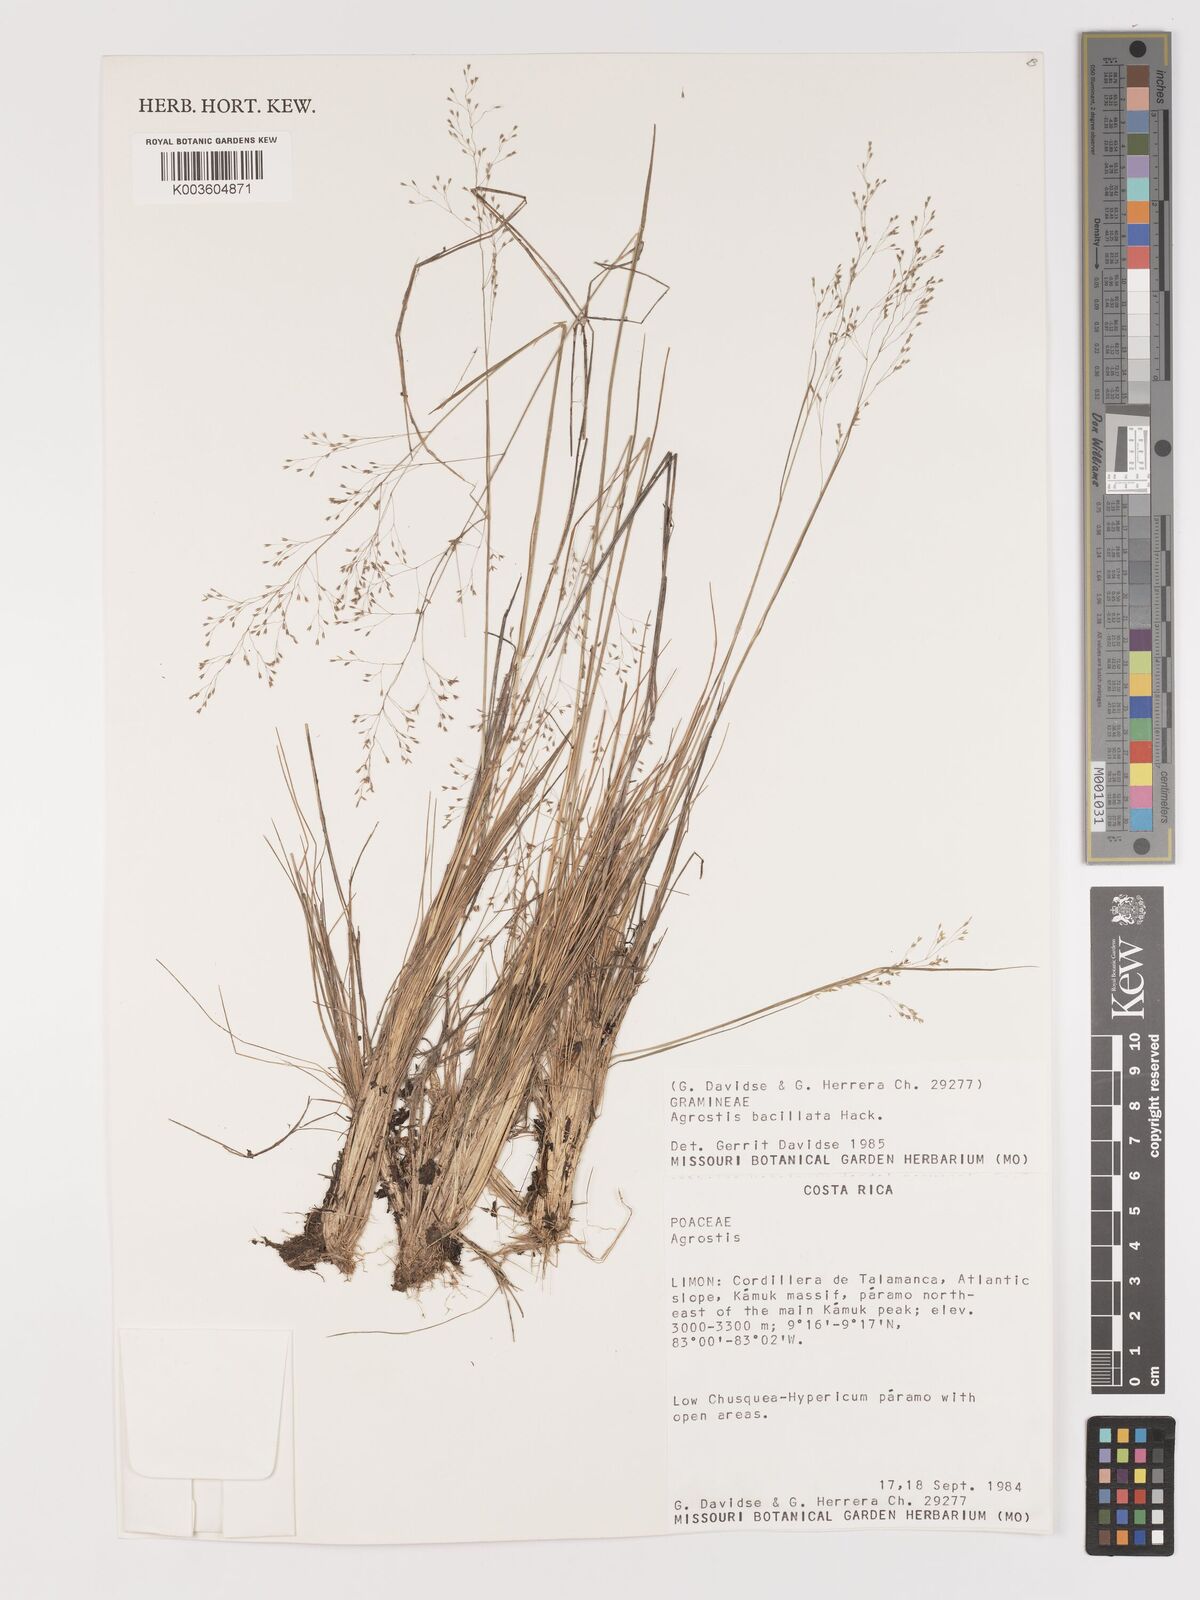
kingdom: Plantae
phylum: Tracheophyta
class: Liliopsida
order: Poales
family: Poaceae
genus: Podagrostis
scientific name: Podagrostis bacillata
